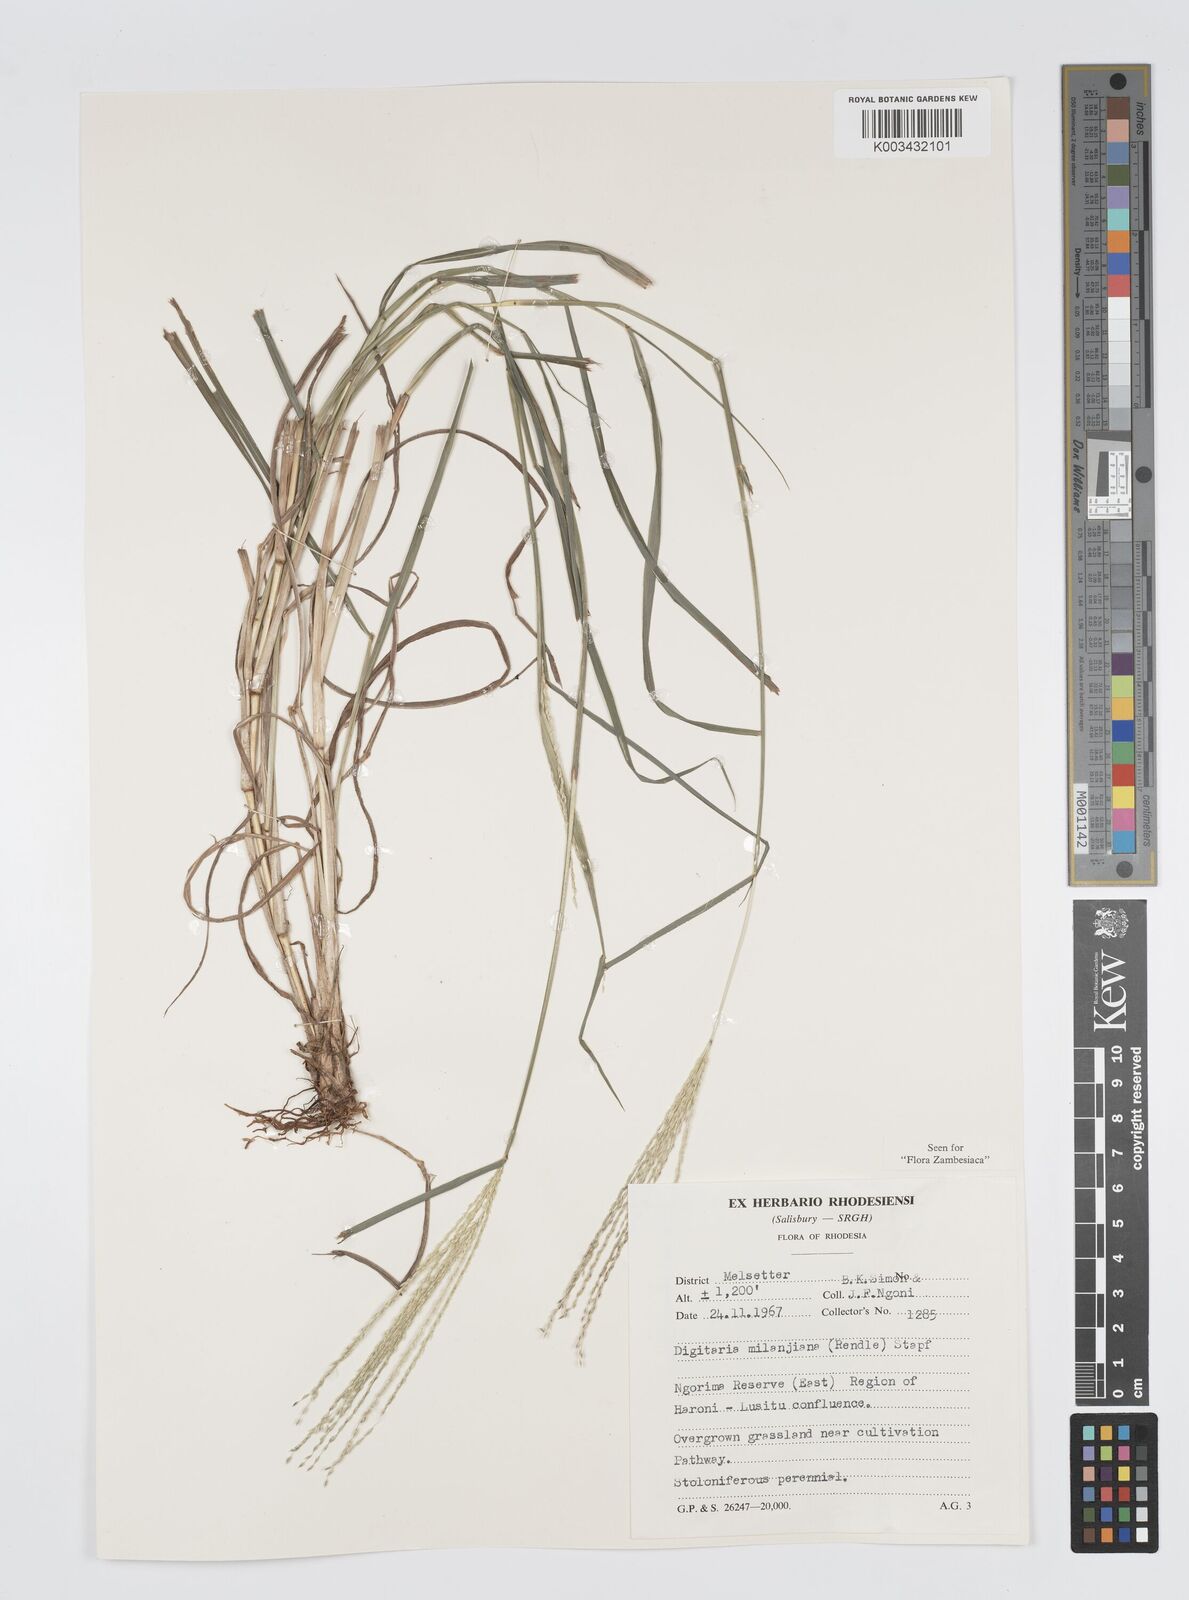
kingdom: Plantae
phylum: Tracheophyta
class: Liliopsida
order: Poales
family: Poaceae
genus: Digitaria
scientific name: Digitaria milanjiana
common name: Madagascar crabgrass
